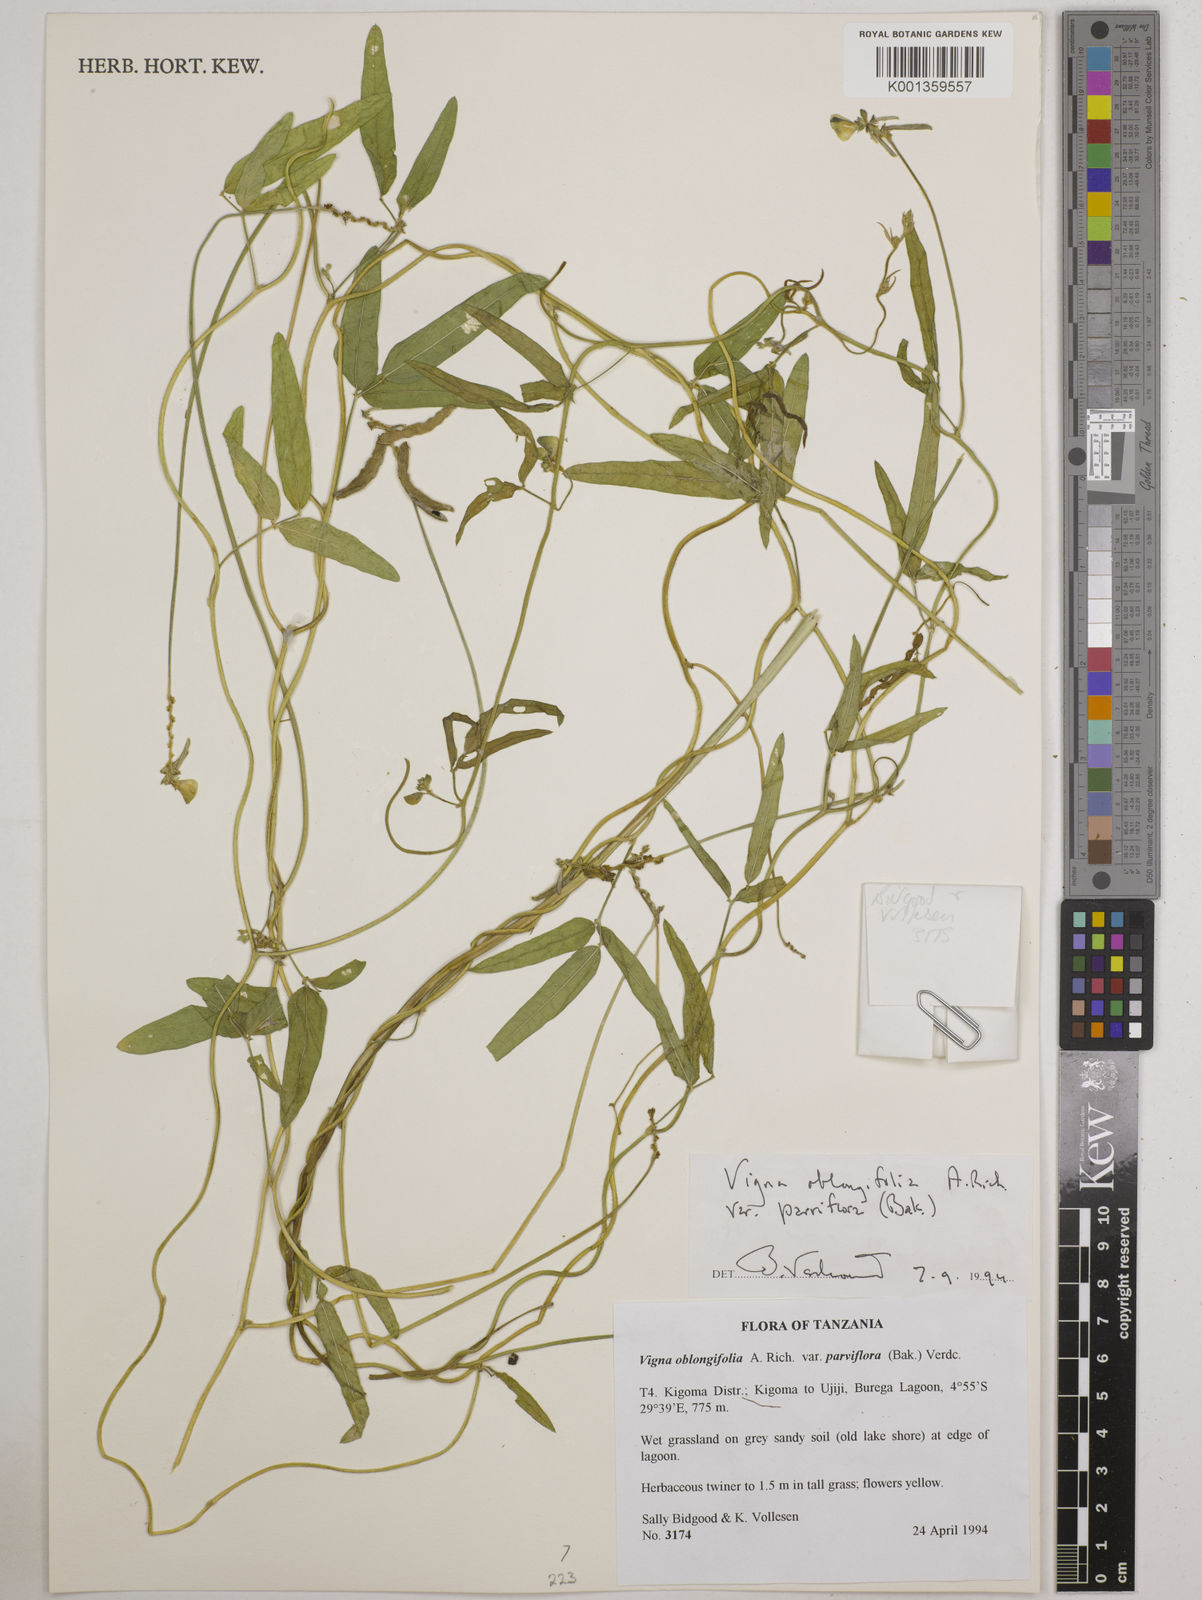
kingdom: Plantae
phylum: Tracheophyta
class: Magnoliopsida
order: Fabales
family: Fabaceae
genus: Vigna
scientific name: Vigna
